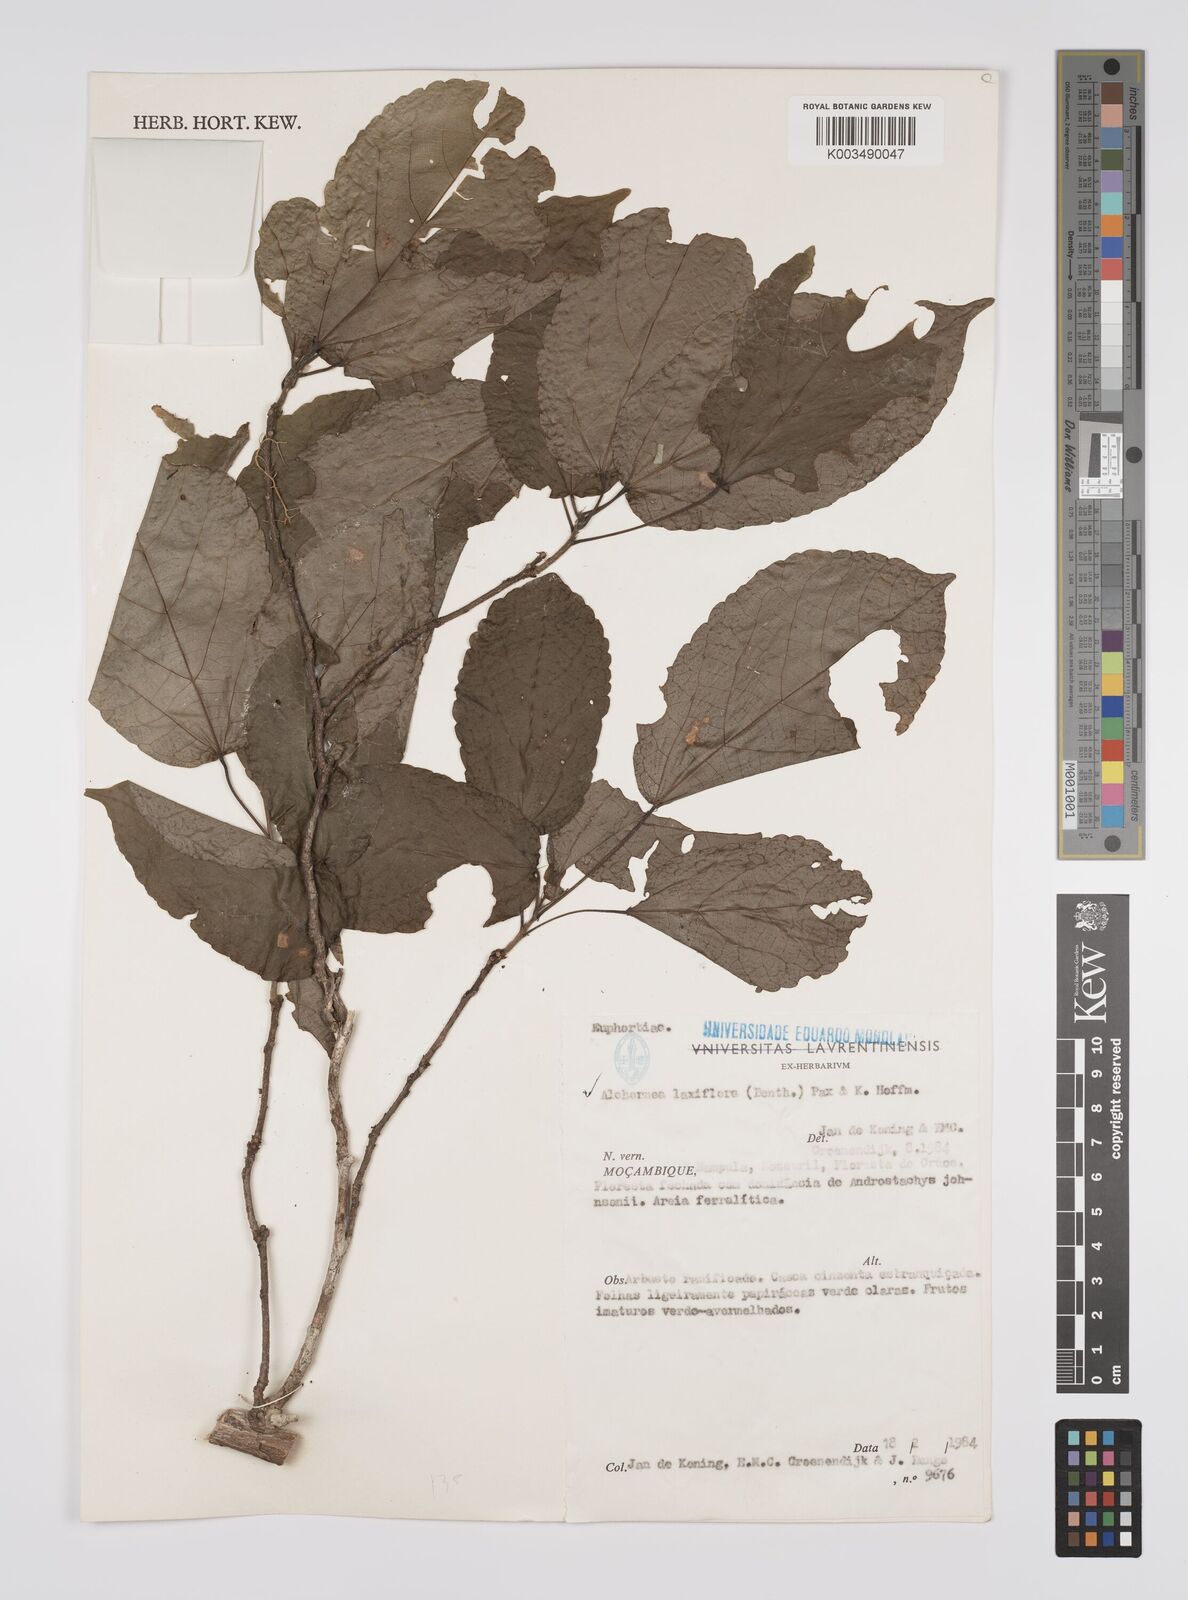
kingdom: Plantae
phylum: Tracheophyta
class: Magnoliopsida
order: Malpighiales
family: Euphorbiaceae
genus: Alchornea
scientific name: Alchornea laxiflora
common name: Lowveld bead-string
